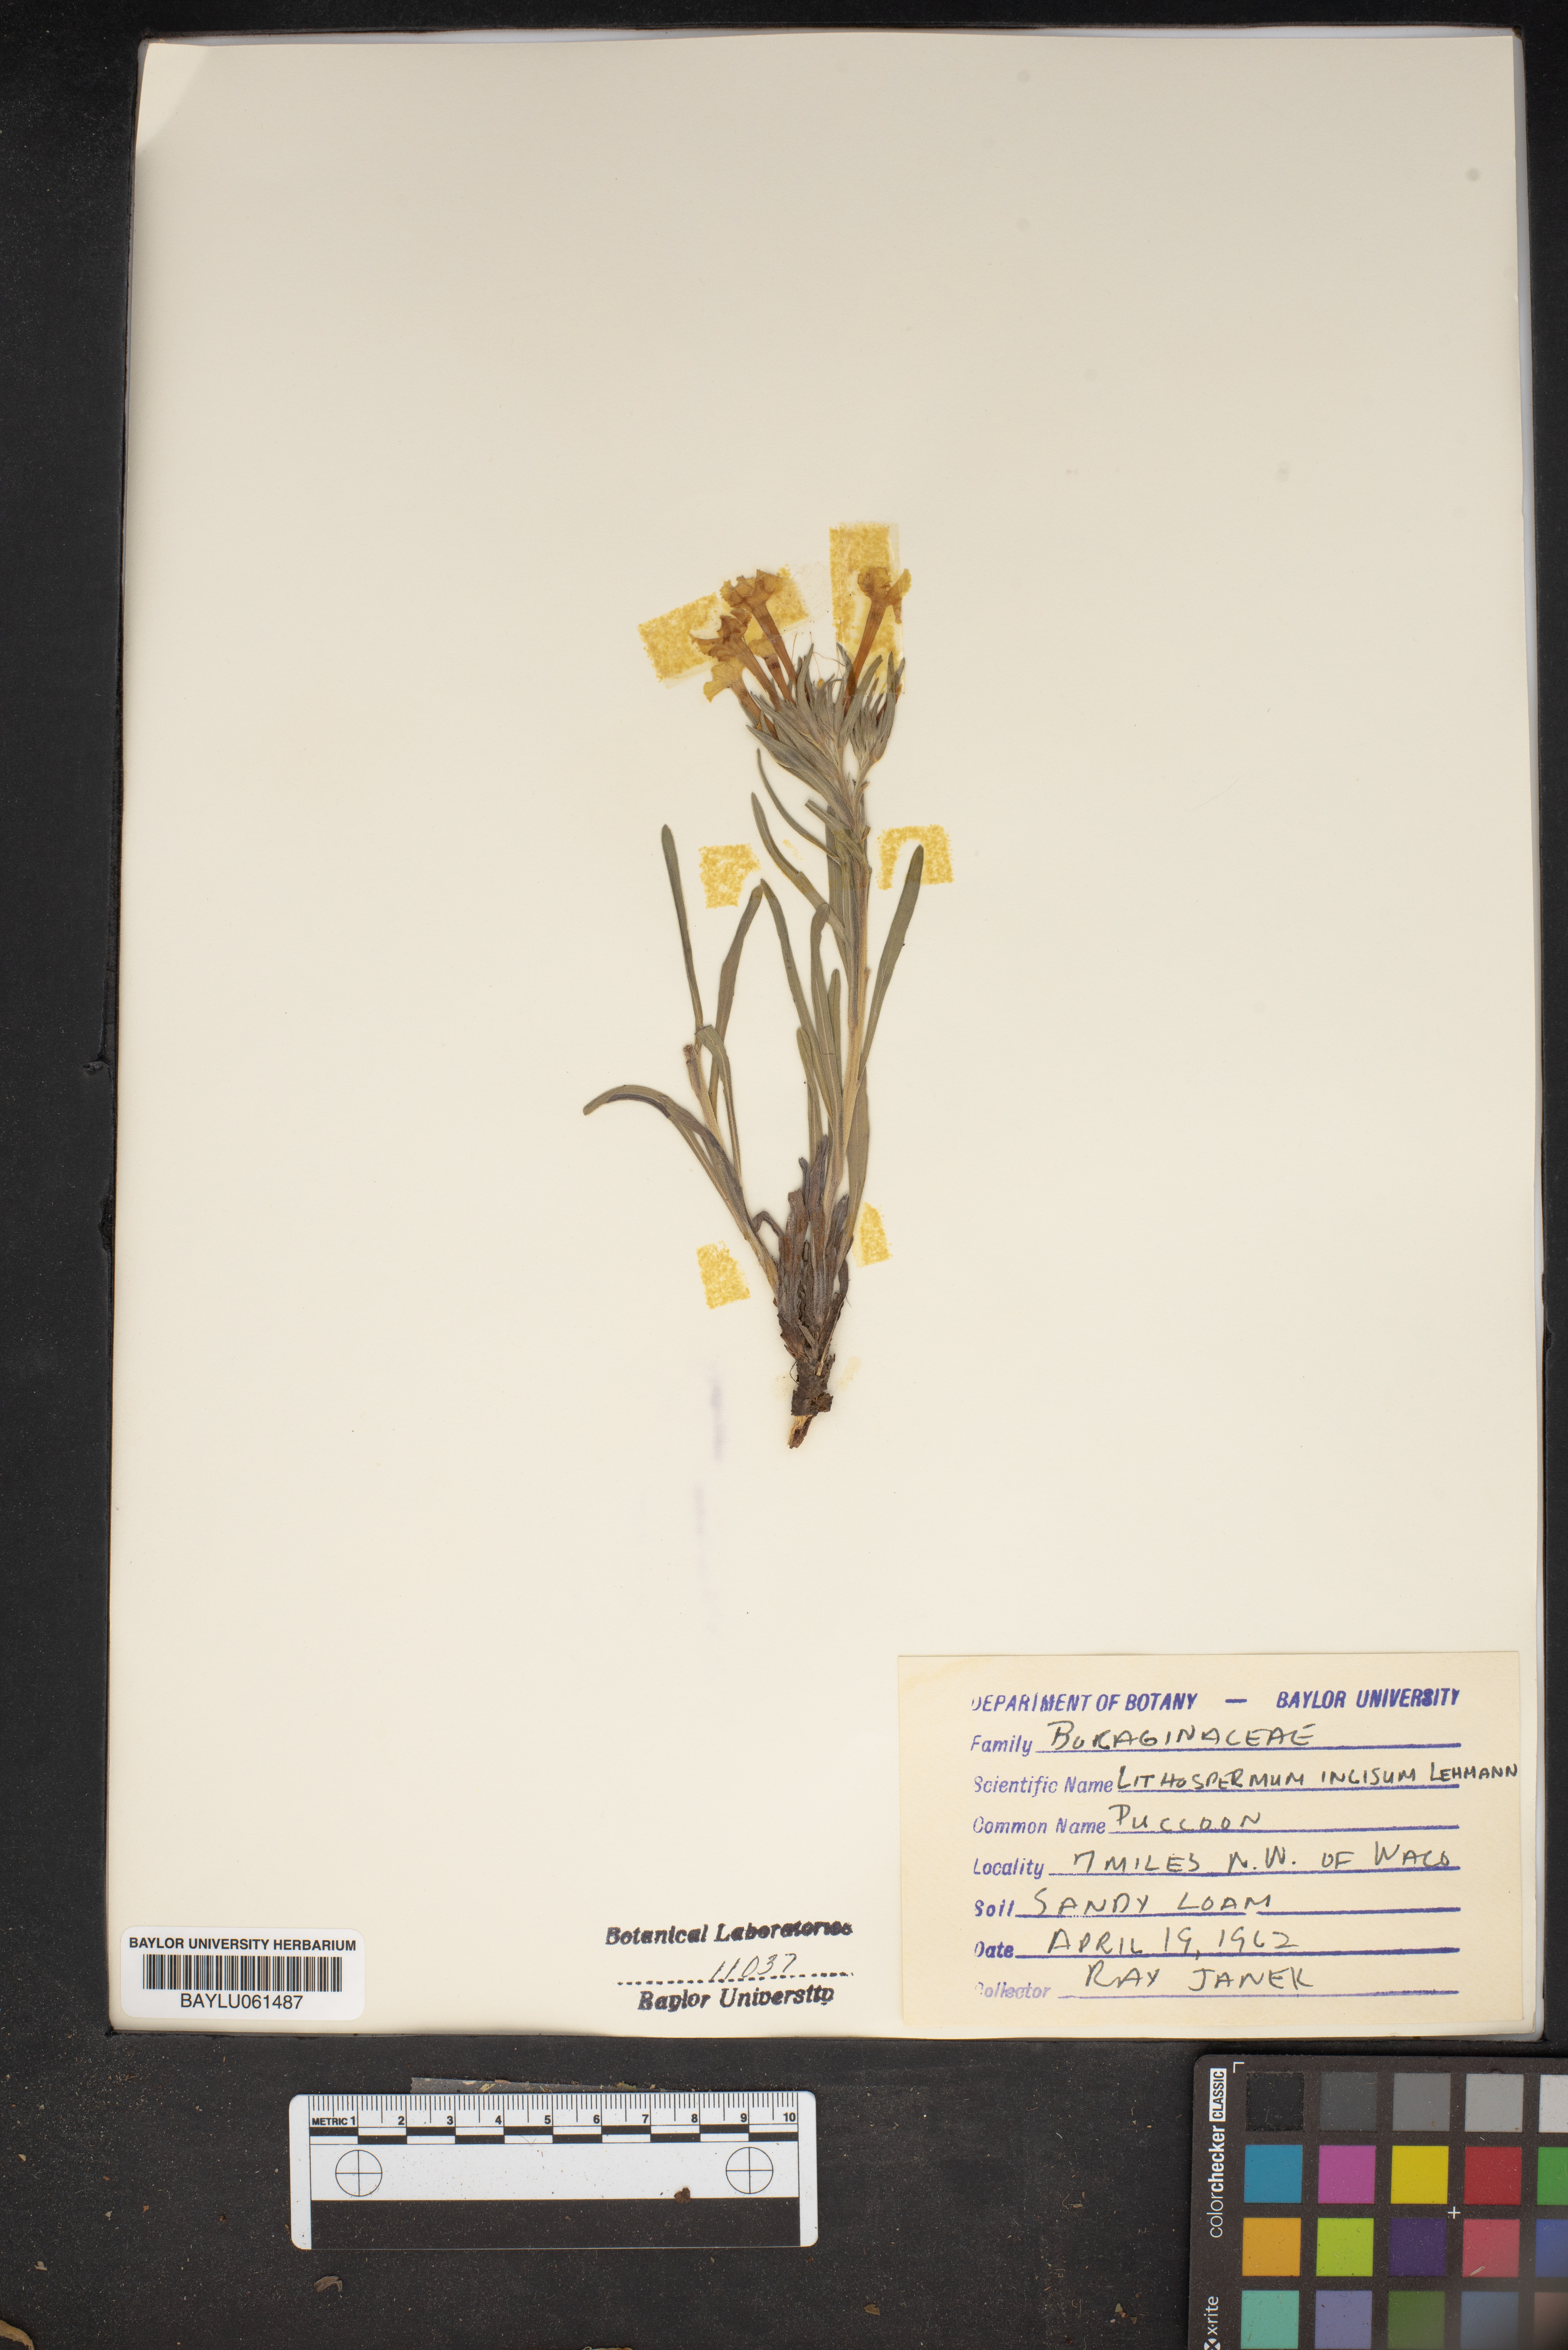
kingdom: Plantae
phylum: Tracheophyta
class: Magnoliopsida
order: Boraginales
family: Boraginaceae
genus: Lithospermum
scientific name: Lithospermum incisum
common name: Fringed gromwell
